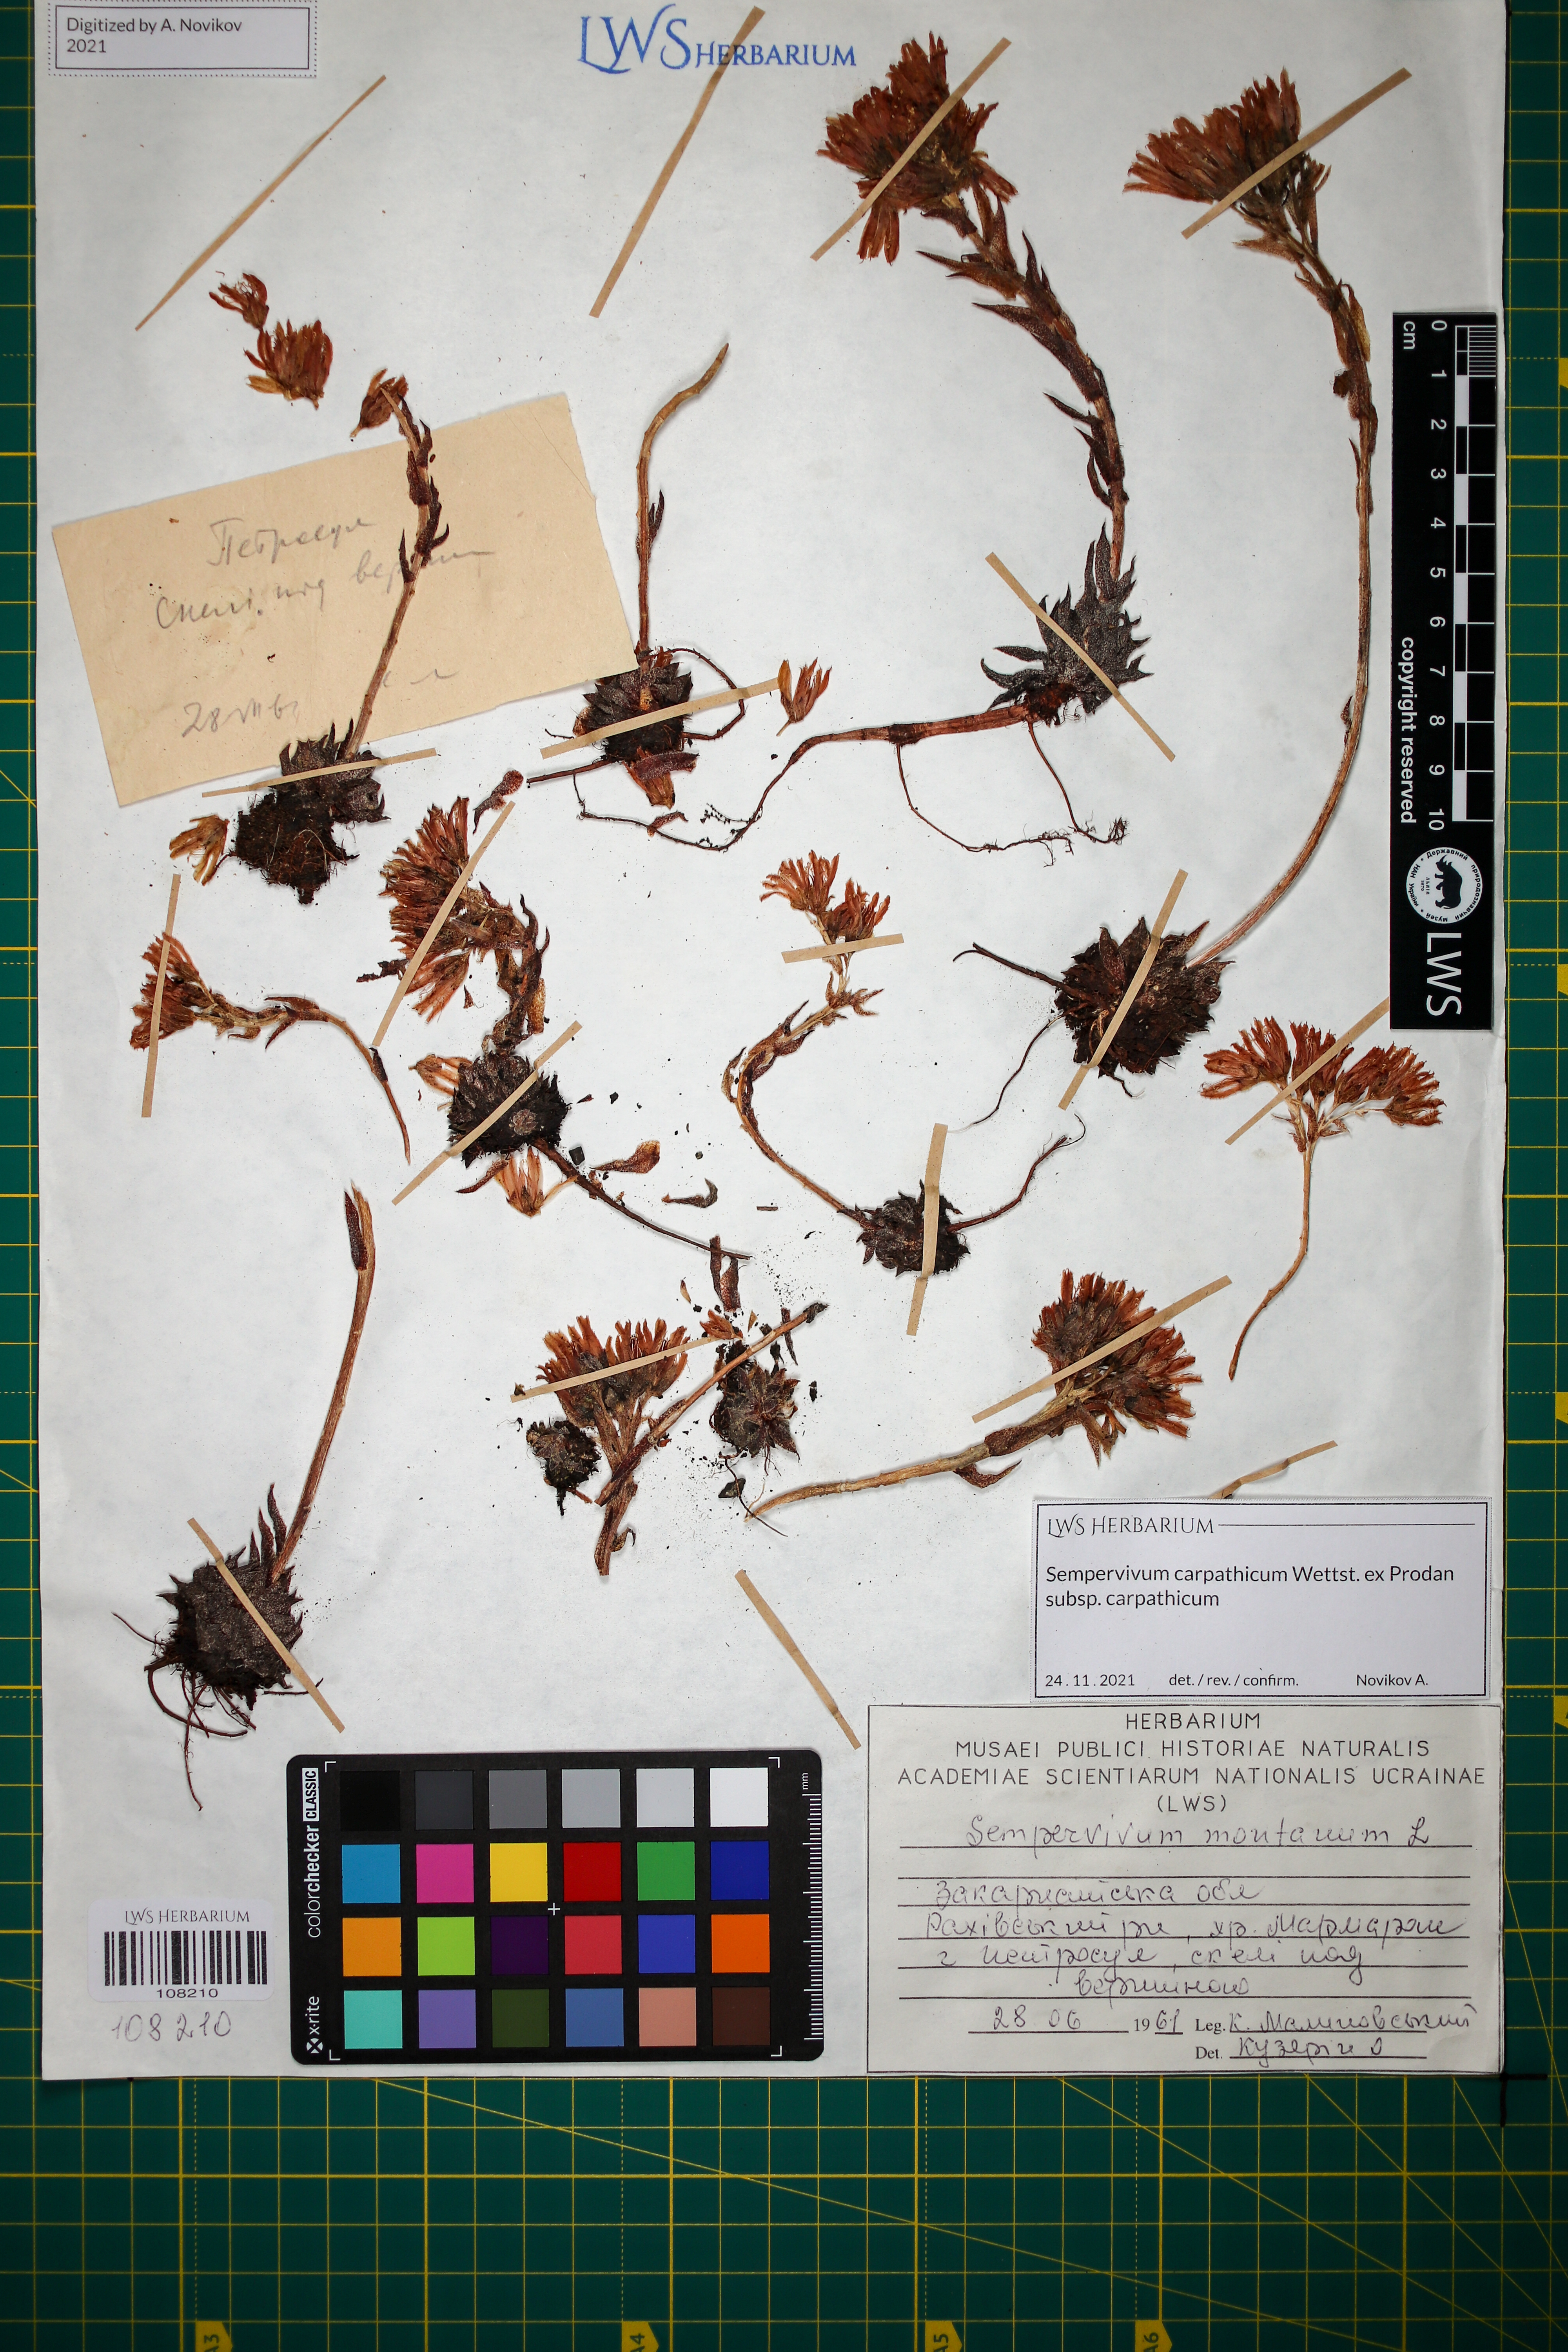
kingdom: Plantae
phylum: Tracheophyta
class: Magnoliopsida
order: Saxifragales
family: Crassulaceae
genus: Sempervivum
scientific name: Sempervivum montanum
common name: Mountain house-leek
